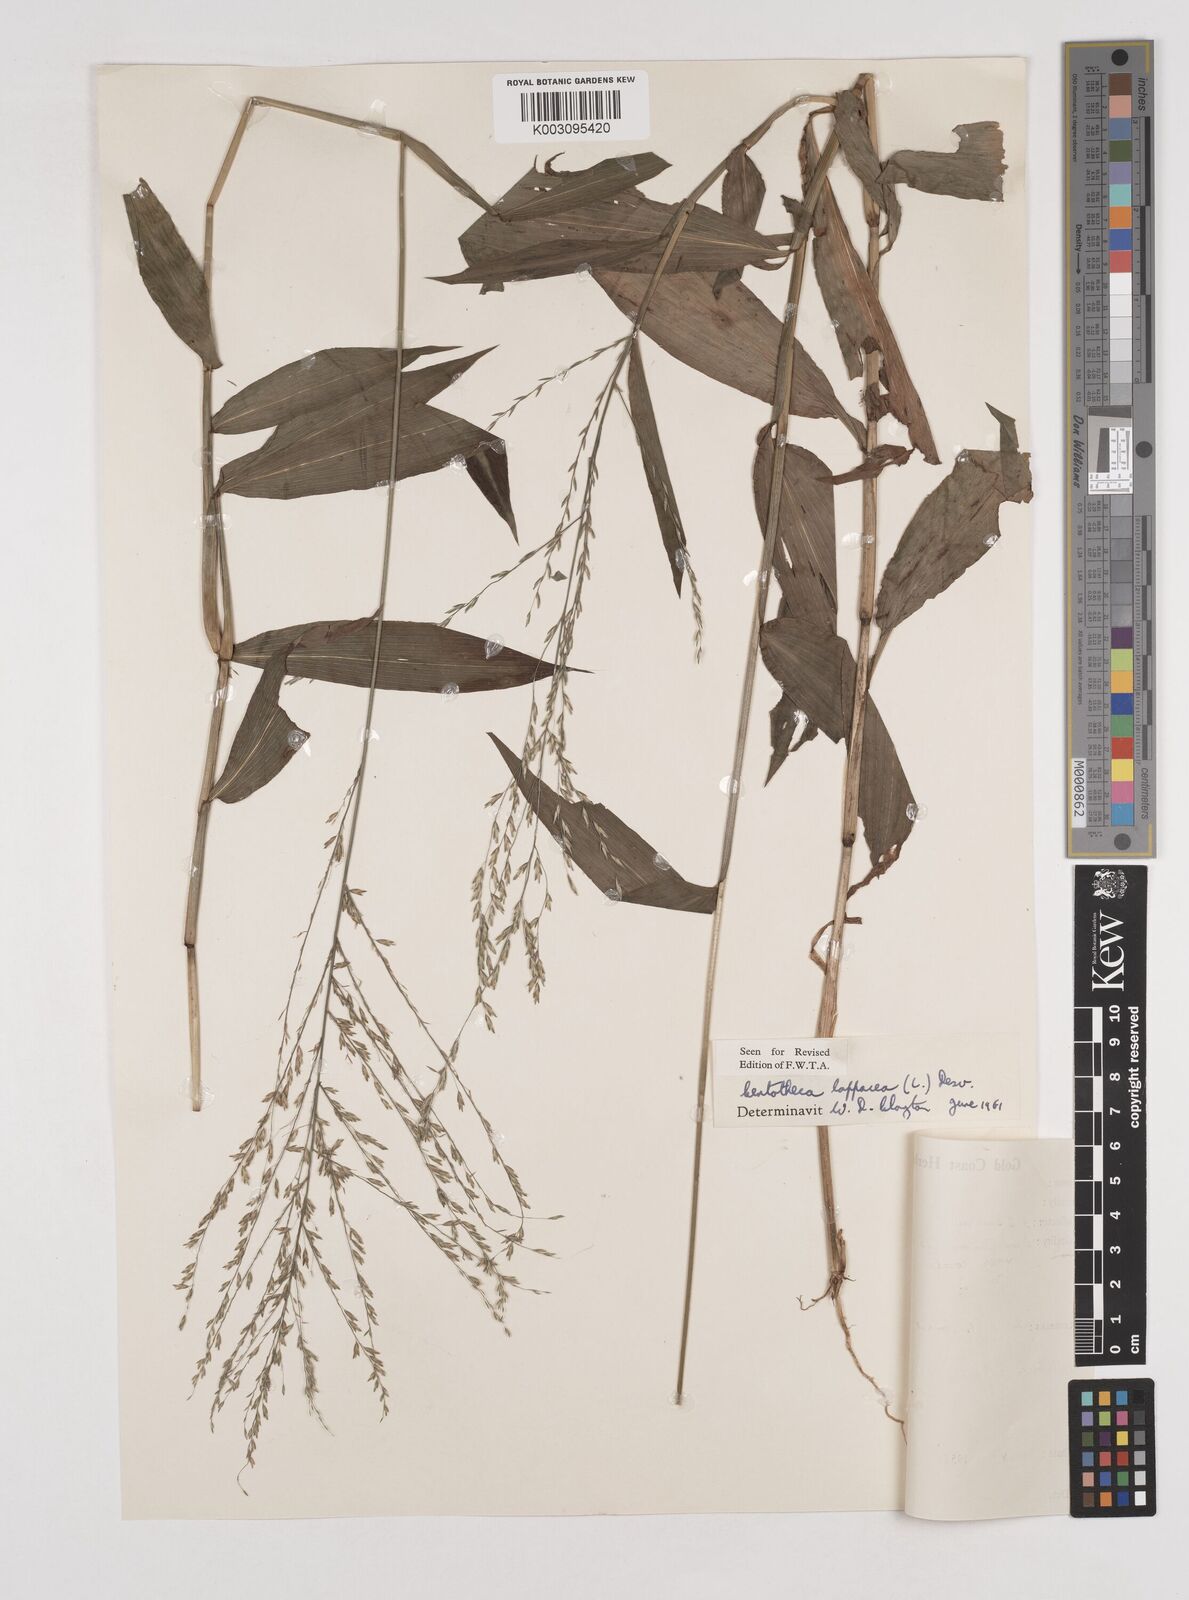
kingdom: Plantae
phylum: Tracheophyta
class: Liliopsida
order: Poales
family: Poaceae
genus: Centotheca
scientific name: Centotheca lappacea
